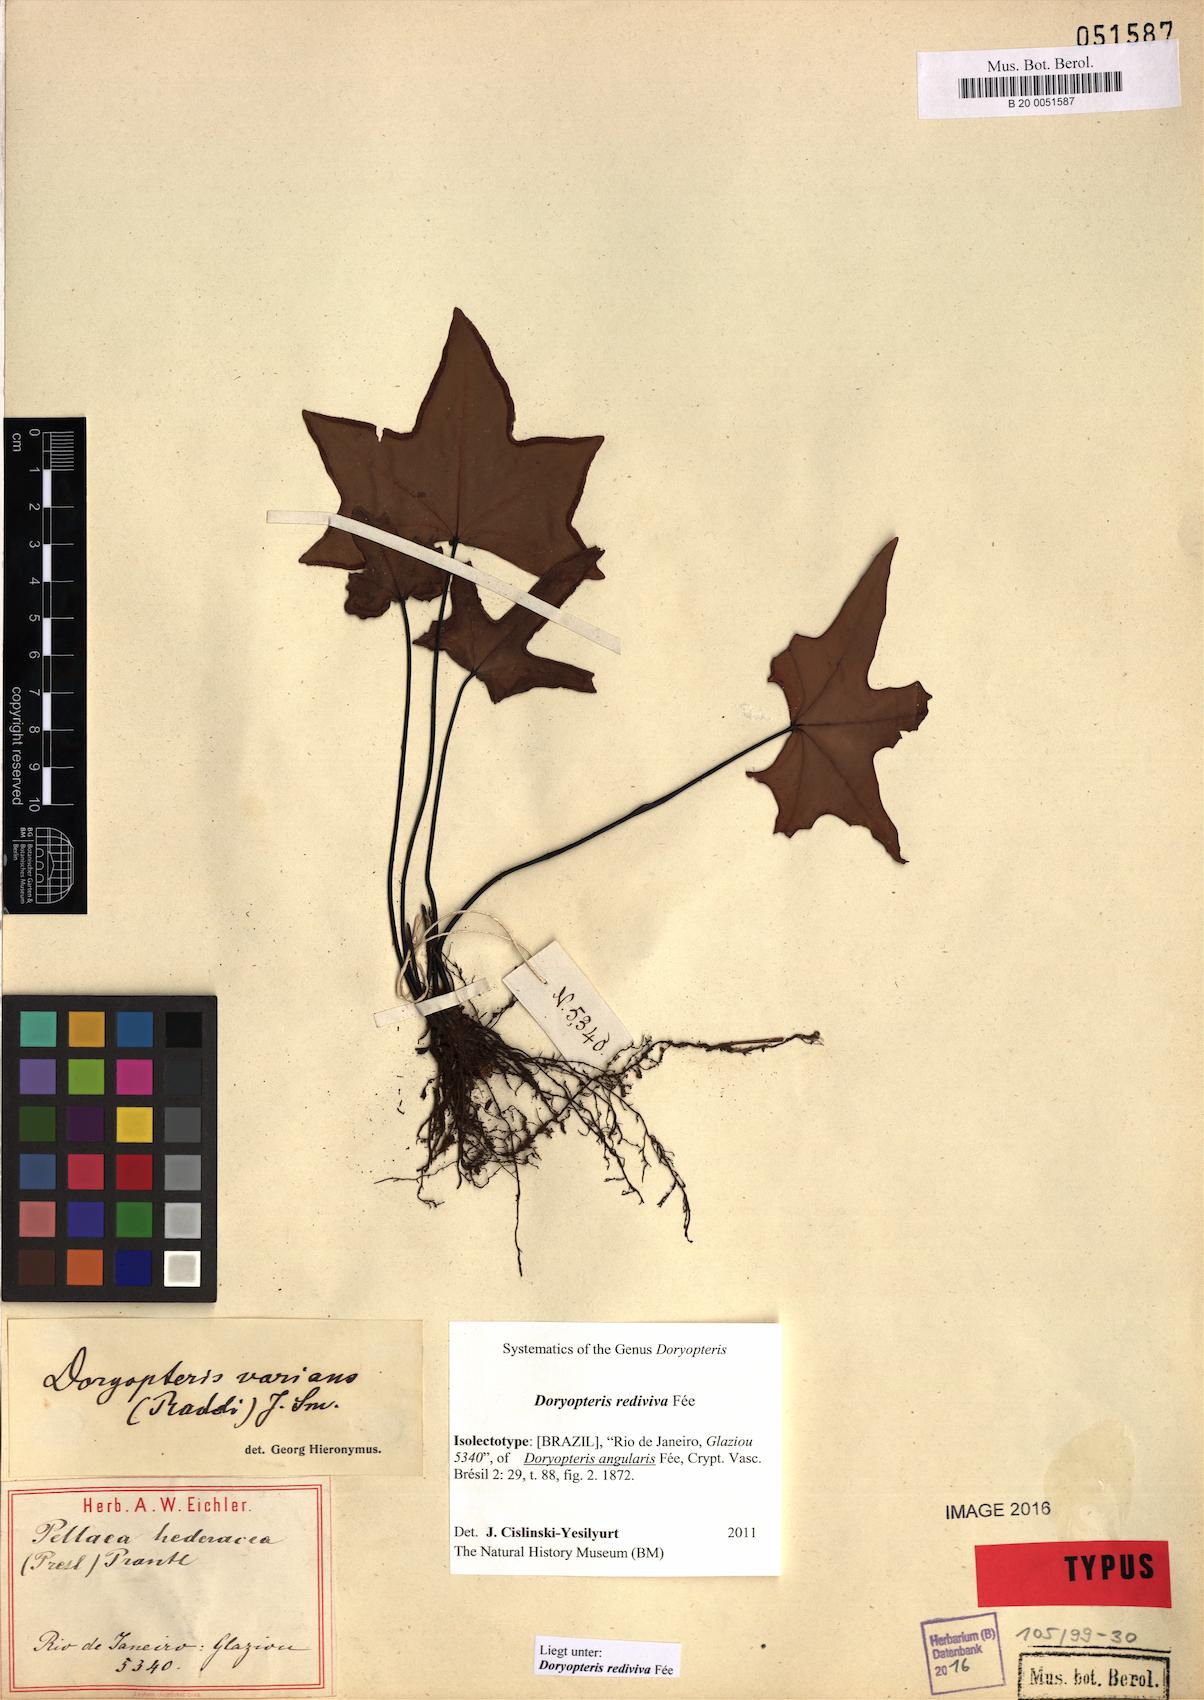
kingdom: Plantae
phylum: Tracheophyta
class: Polypodiopsida
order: Polypodiales
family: Pteridaceae
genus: Doryopteris
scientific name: Doryopteris rediviva
